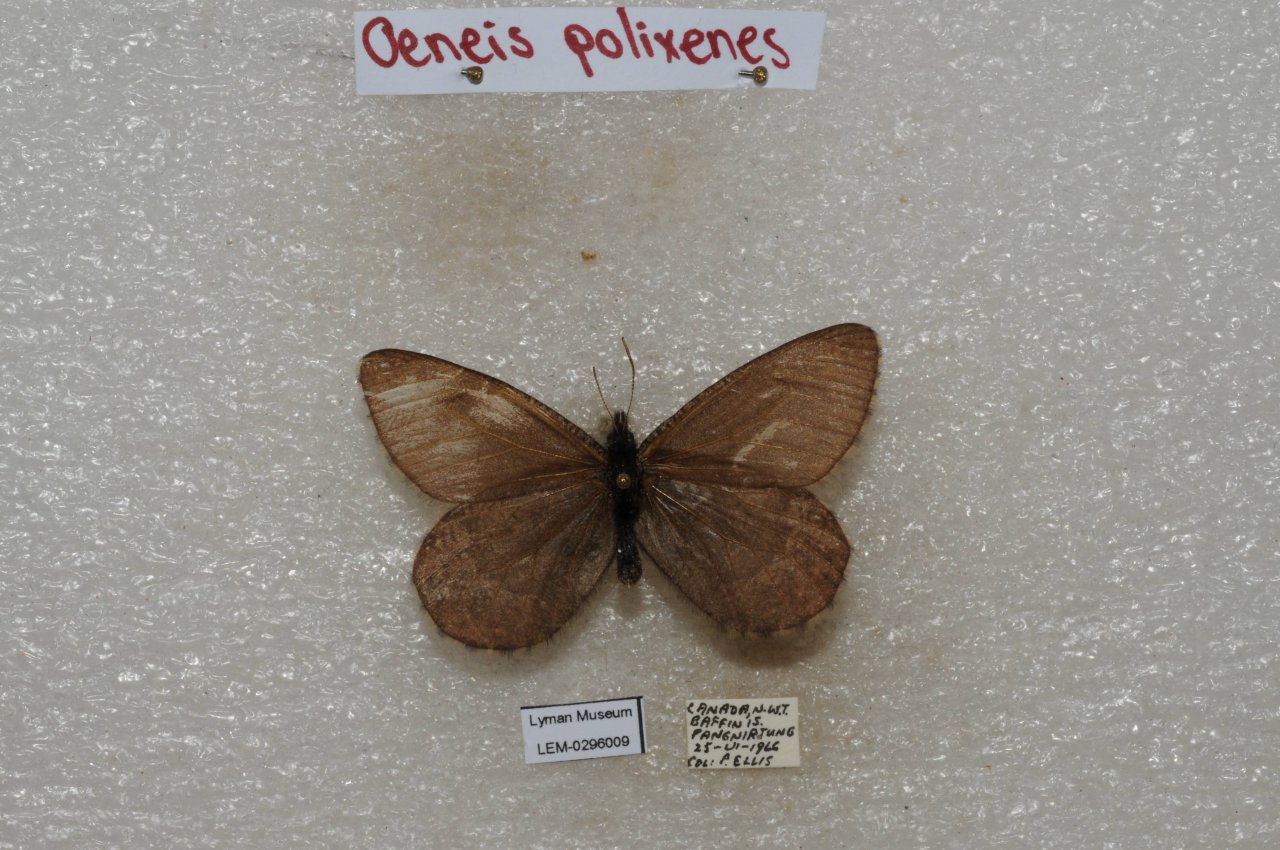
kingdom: Animalia
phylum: Arthropoda
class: Insecta
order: Lepidoptera
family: Nymphalidae
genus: Oeneis
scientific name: Oeneis bore
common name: Polixenes Arctic
